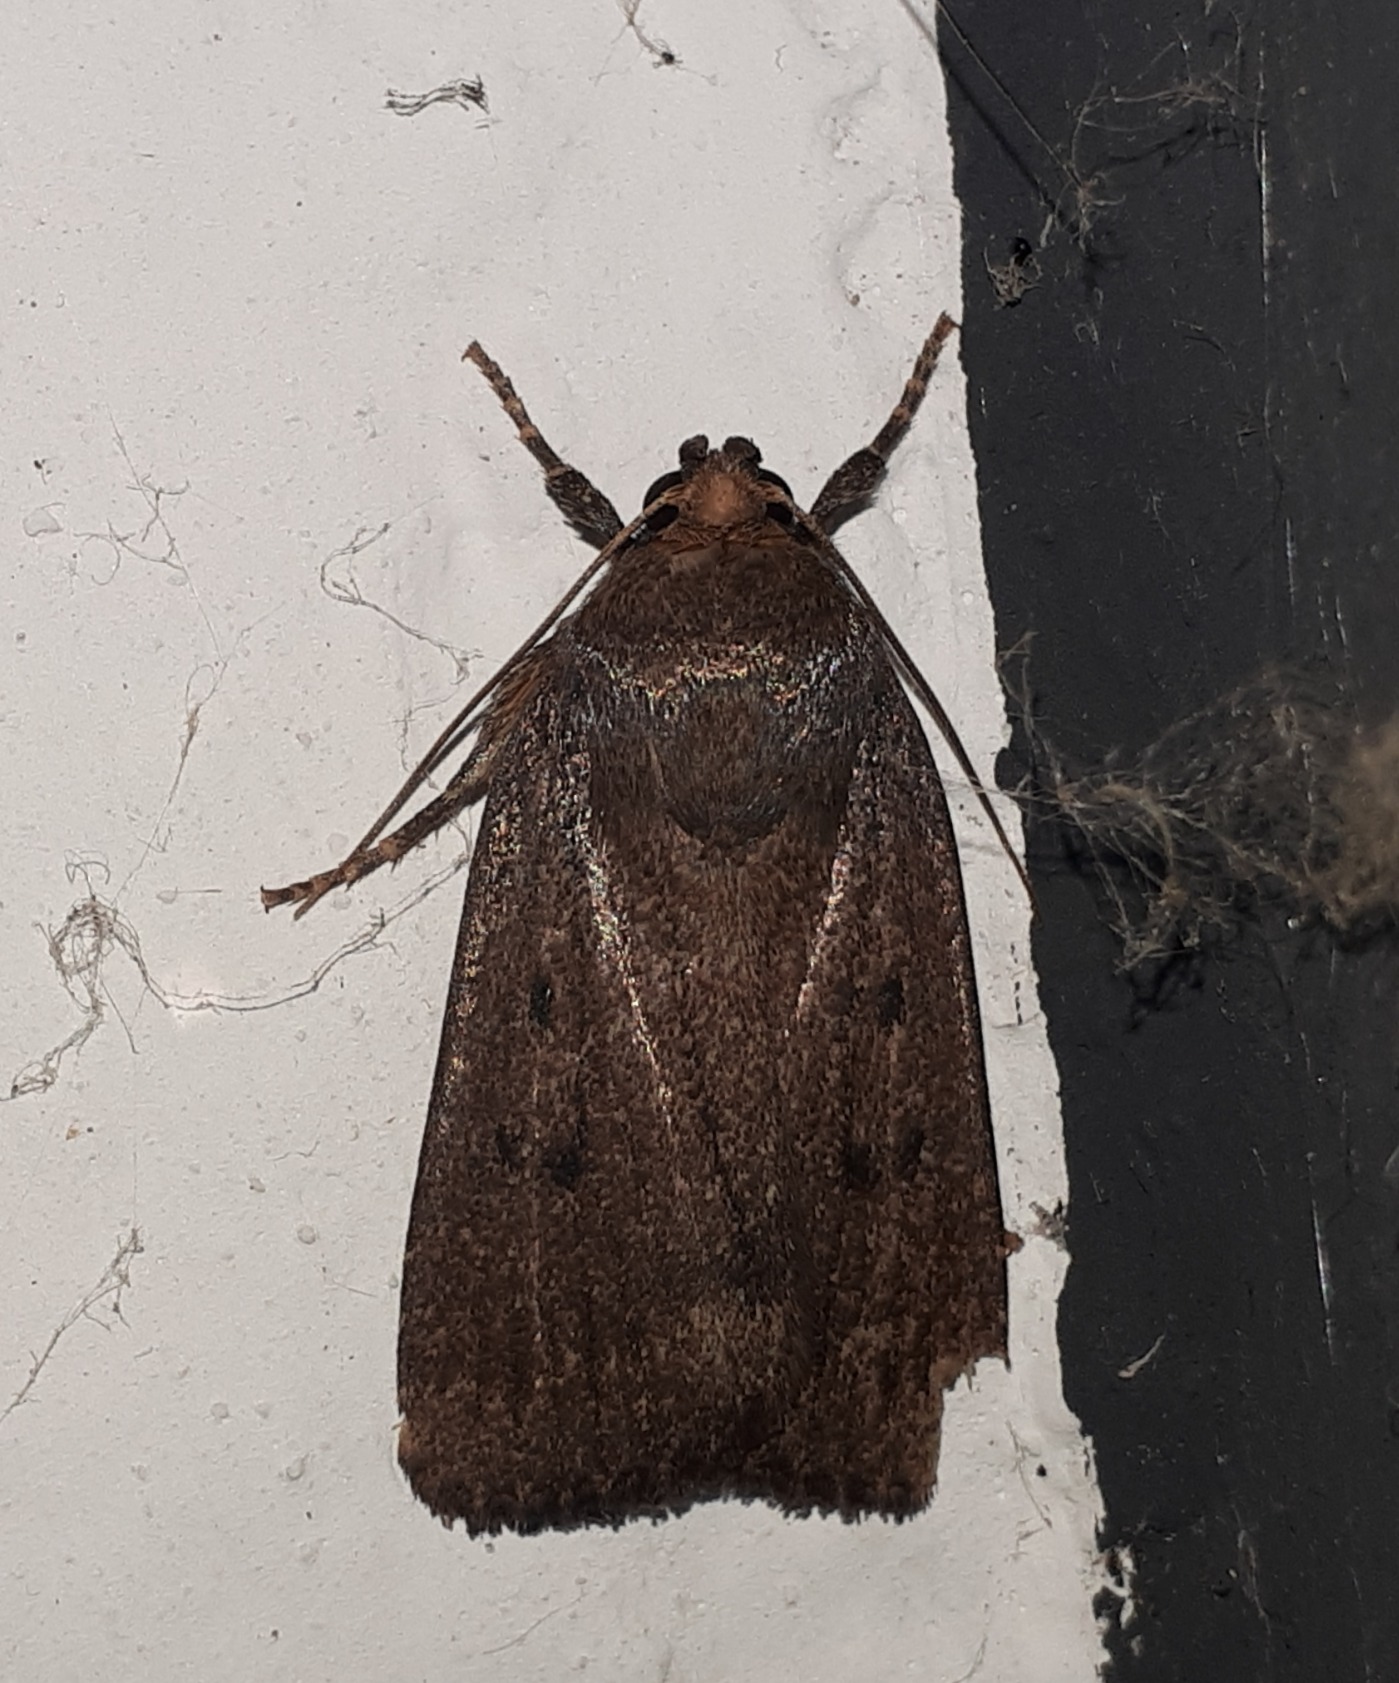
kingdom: Animalia
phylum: Arthropoda
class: Insecta
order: Lepidoptera
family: Noctuidae
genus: Amphipyra
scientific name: Amphipyra tragopoginis
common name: Blyantsugle
